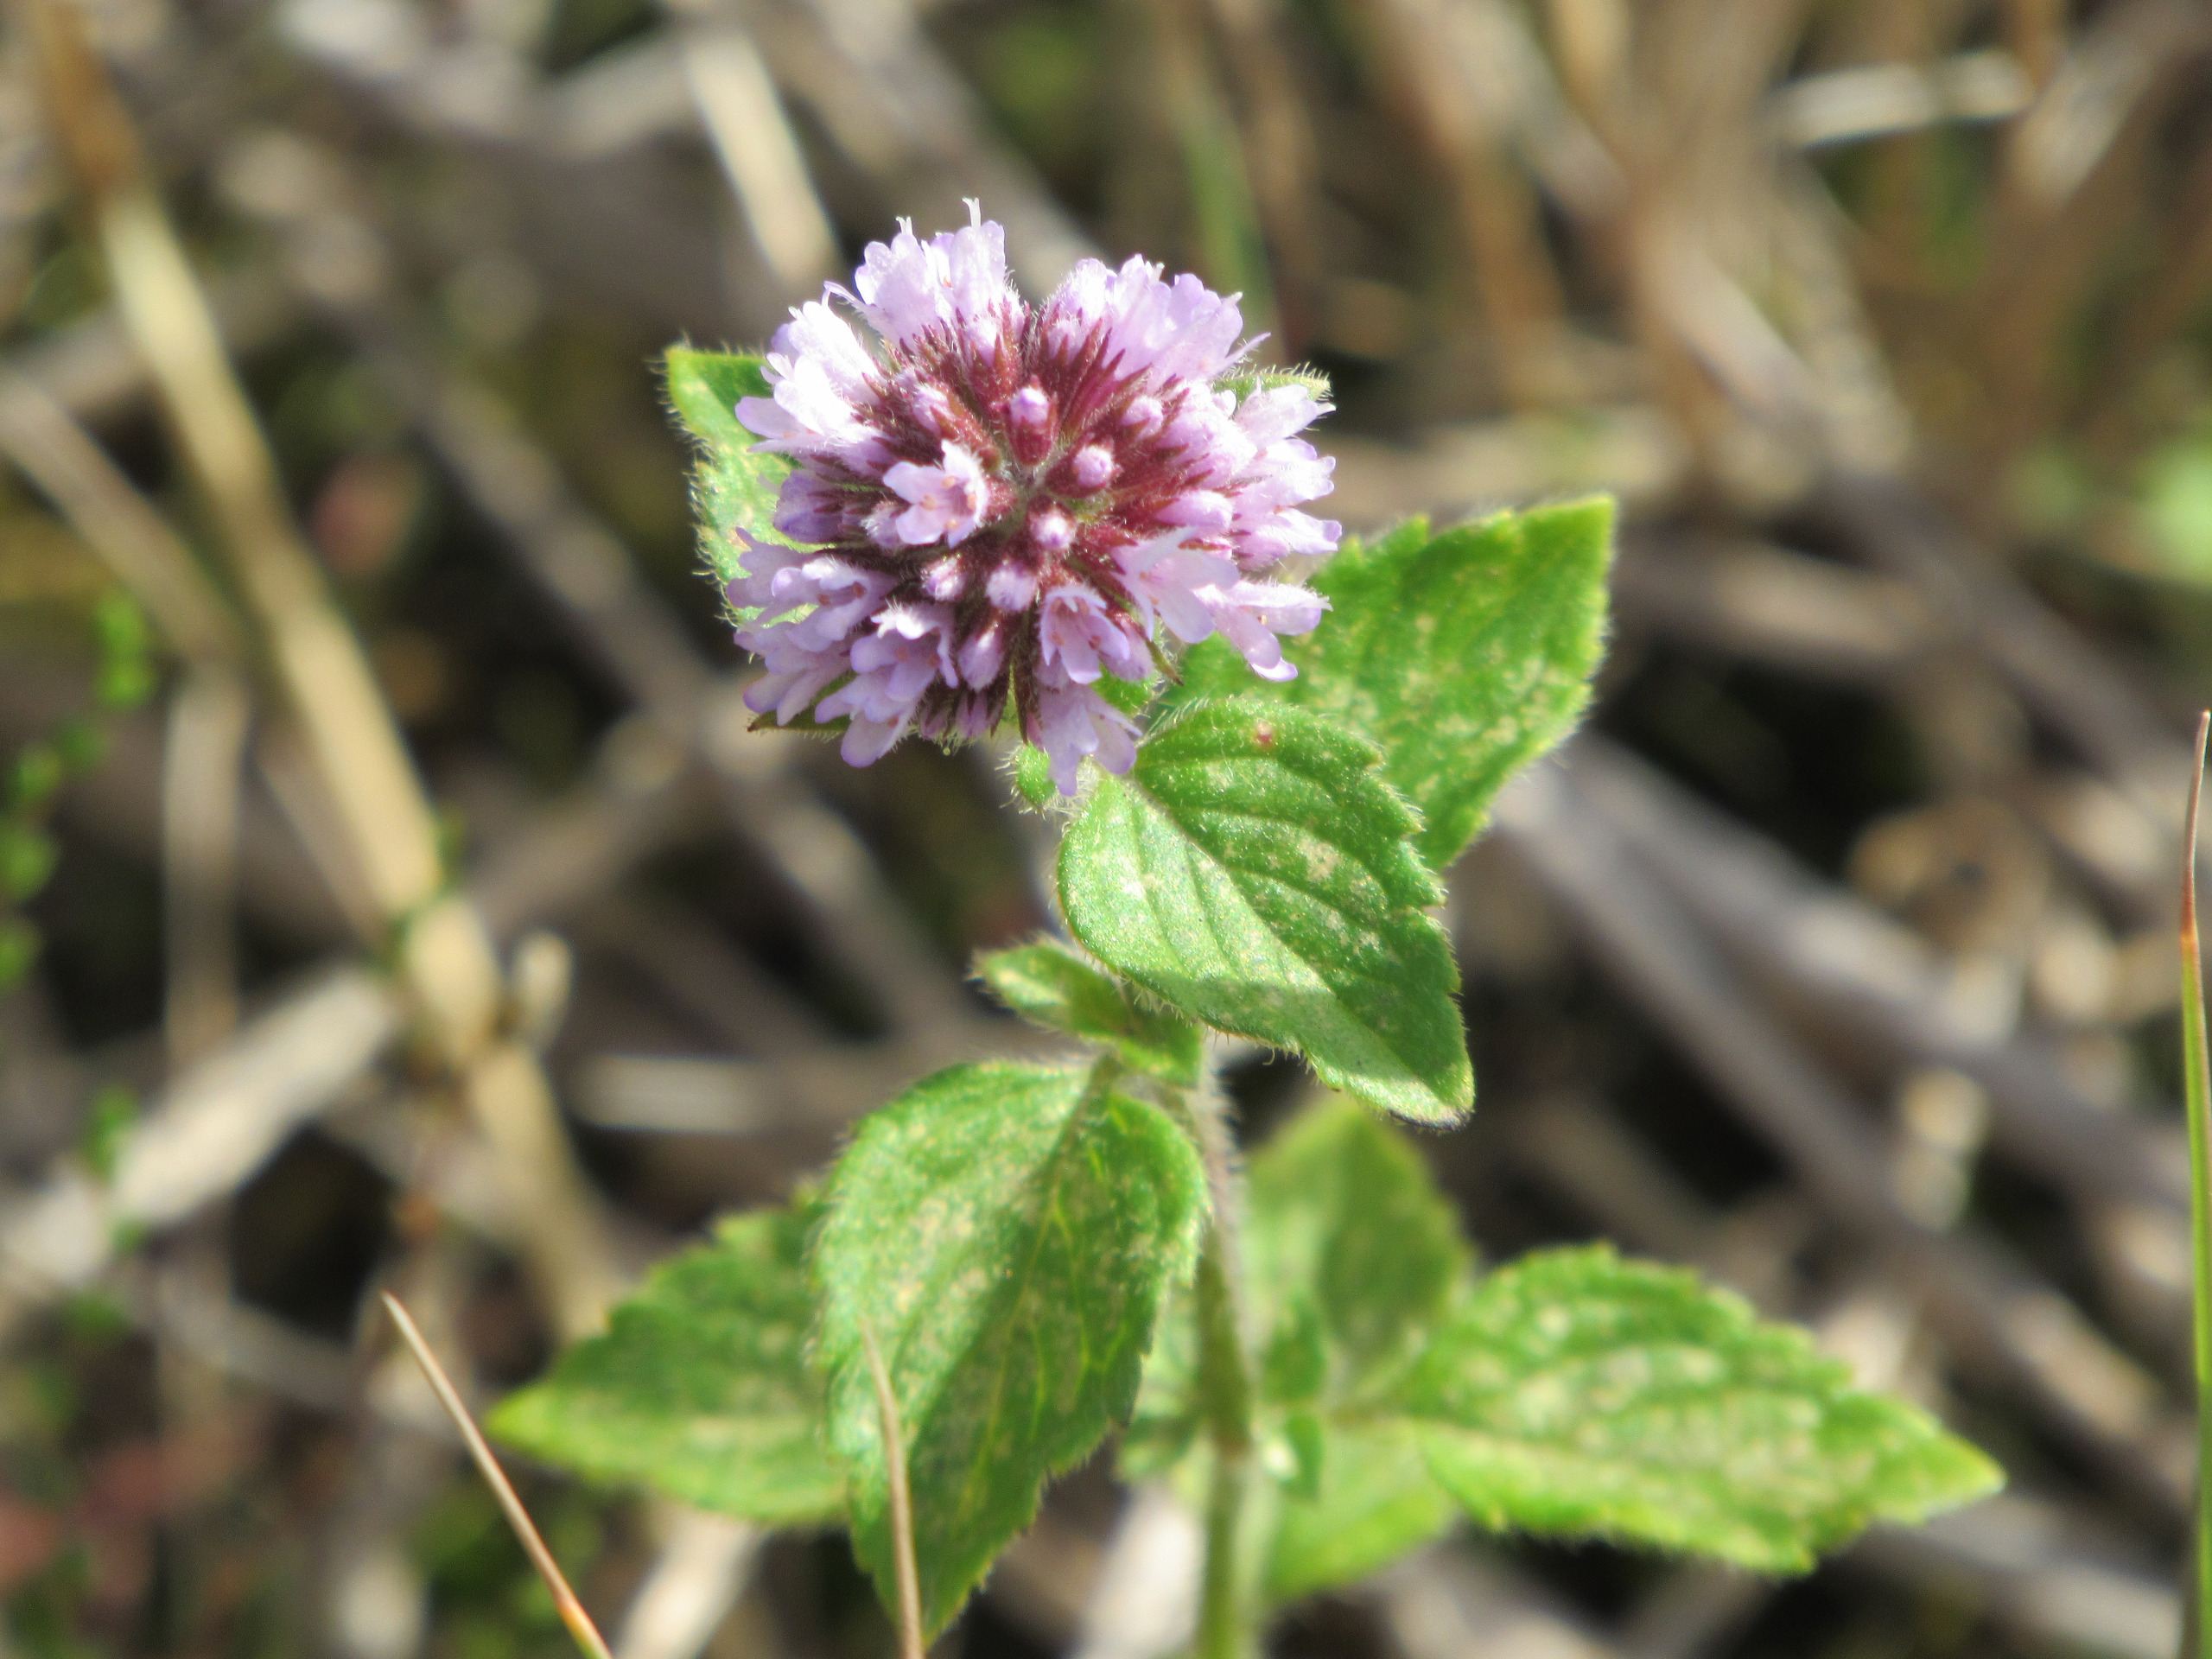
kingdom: Plantae
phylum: Tracheophyta
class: Magnoliopsida
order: Lamiales
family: Lamiaceae
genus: Mentha
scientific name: Mentha aquatica
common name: Vand-mynte
